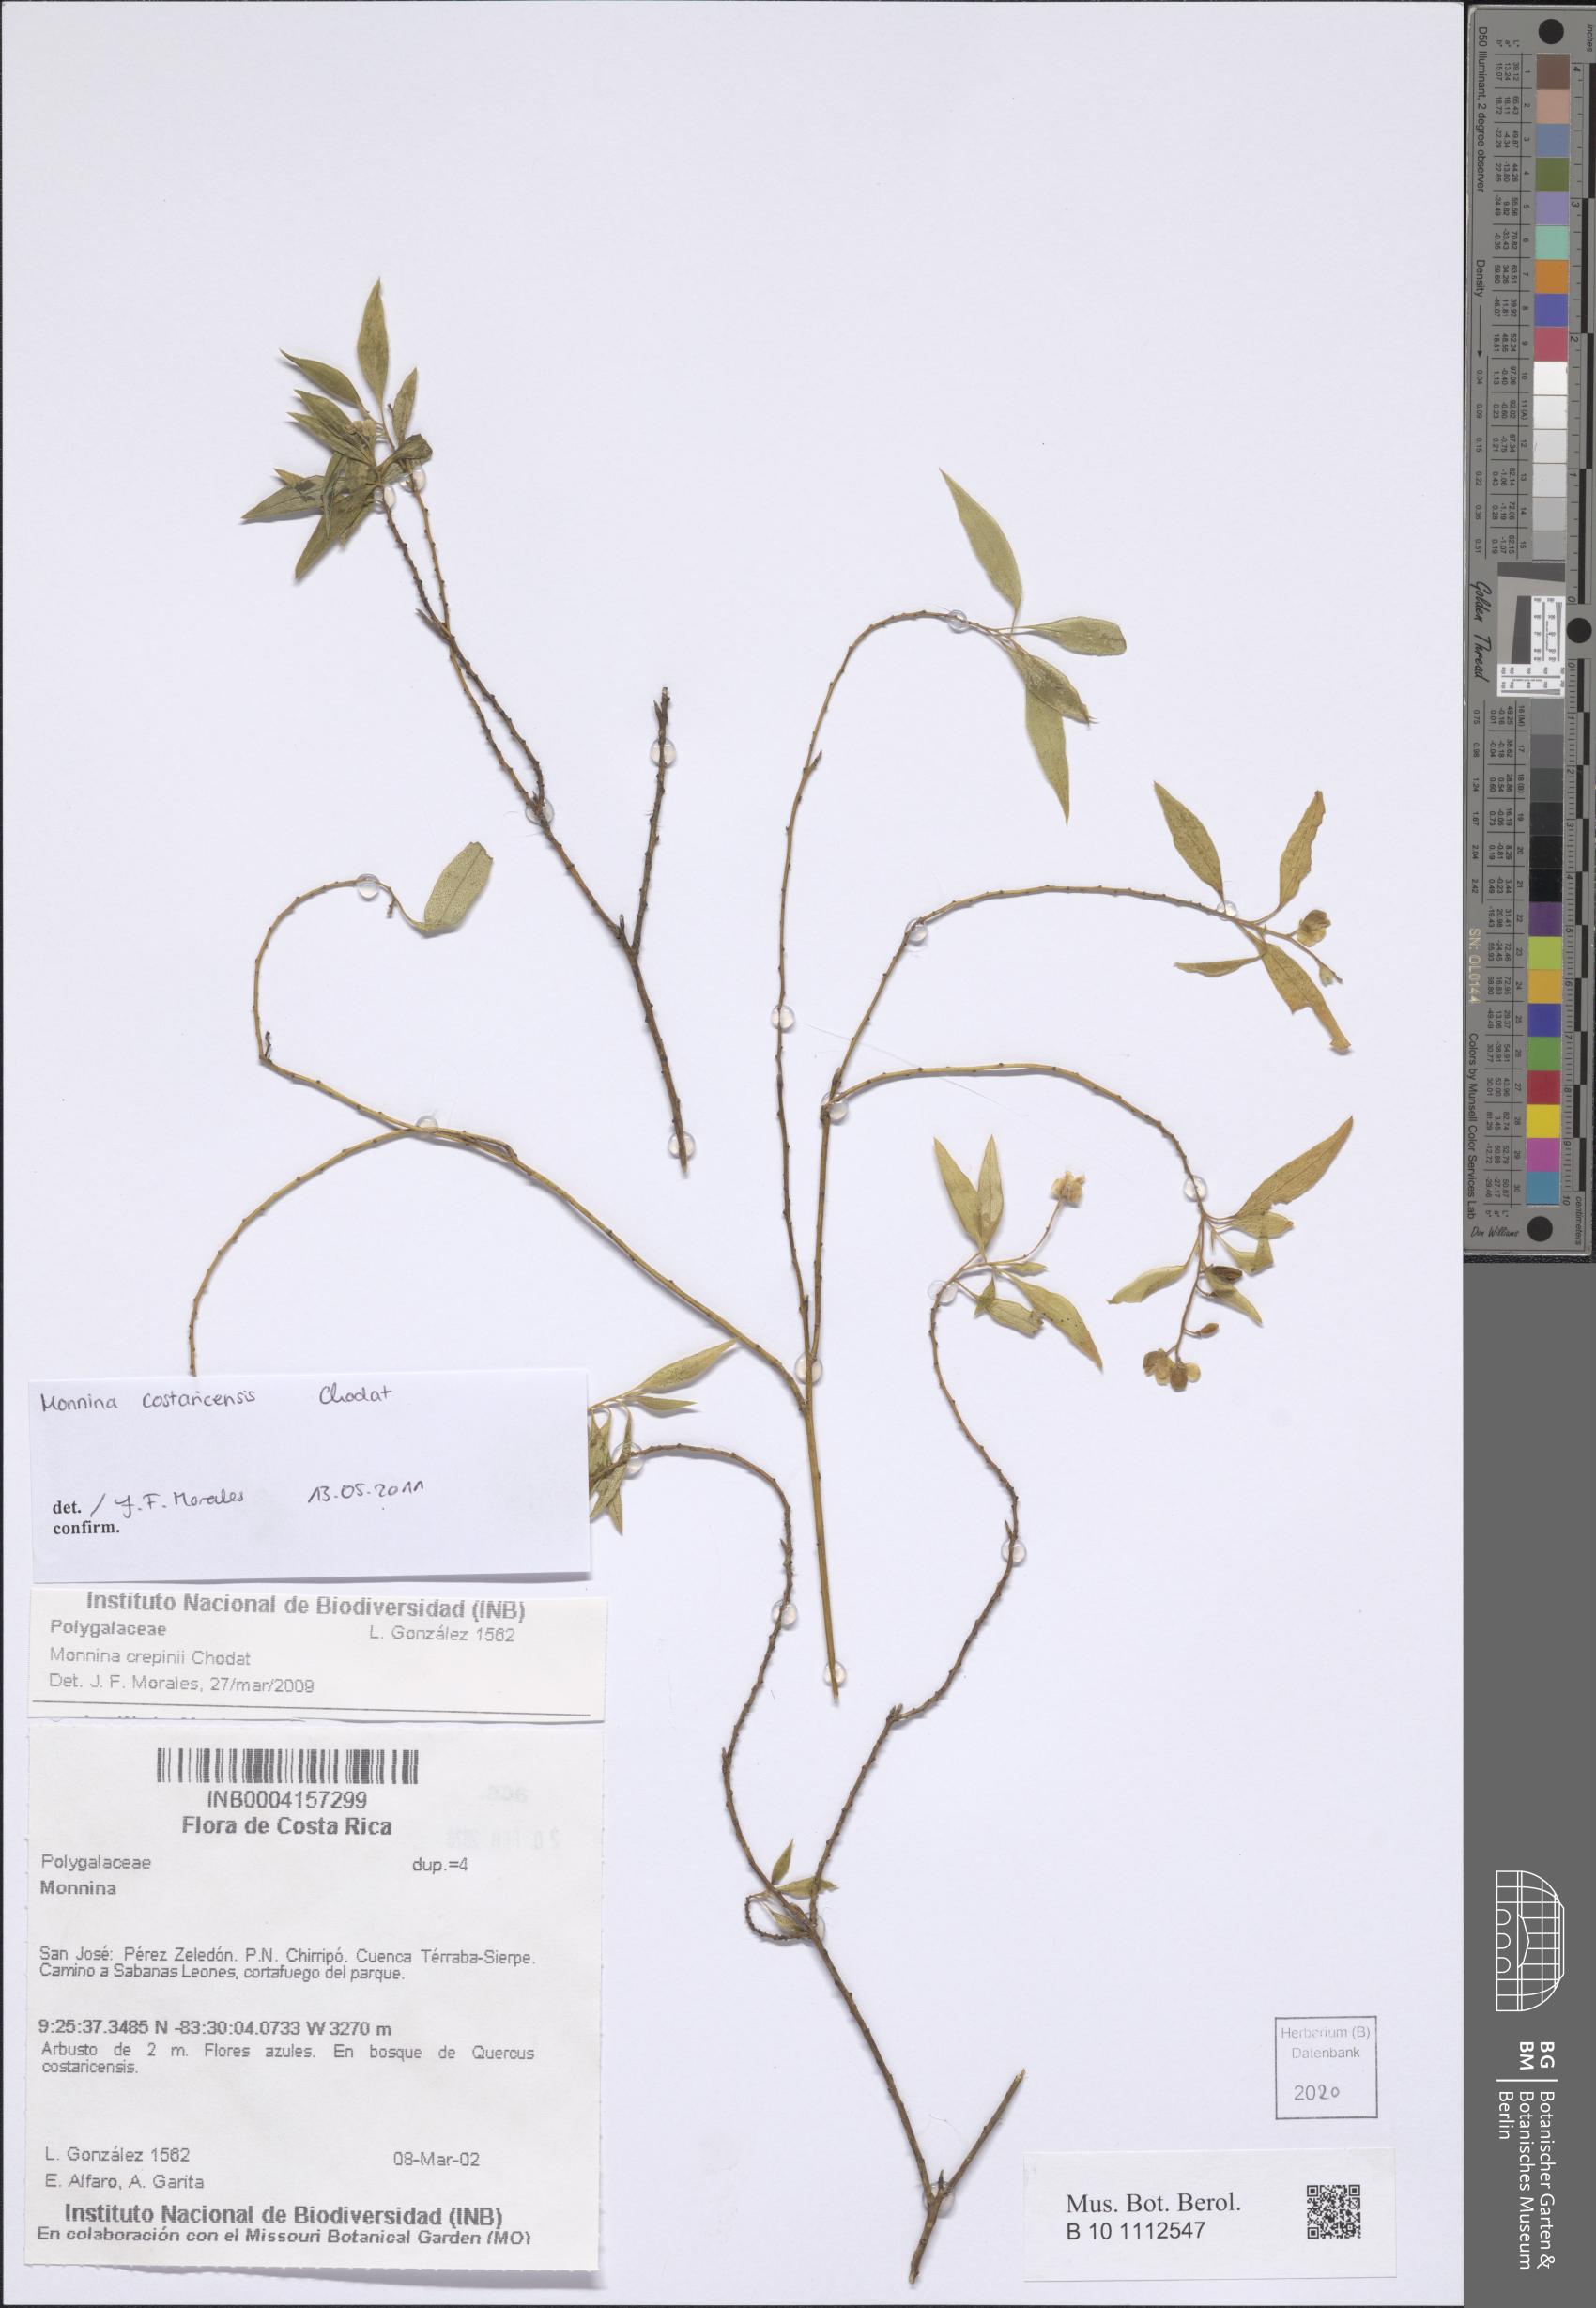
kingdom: Plantae
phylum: Tracheophyta
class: Magnoliopsida
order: Fabales
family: Polygalaceae
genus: Monnina
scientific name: Monnina costaricensis
